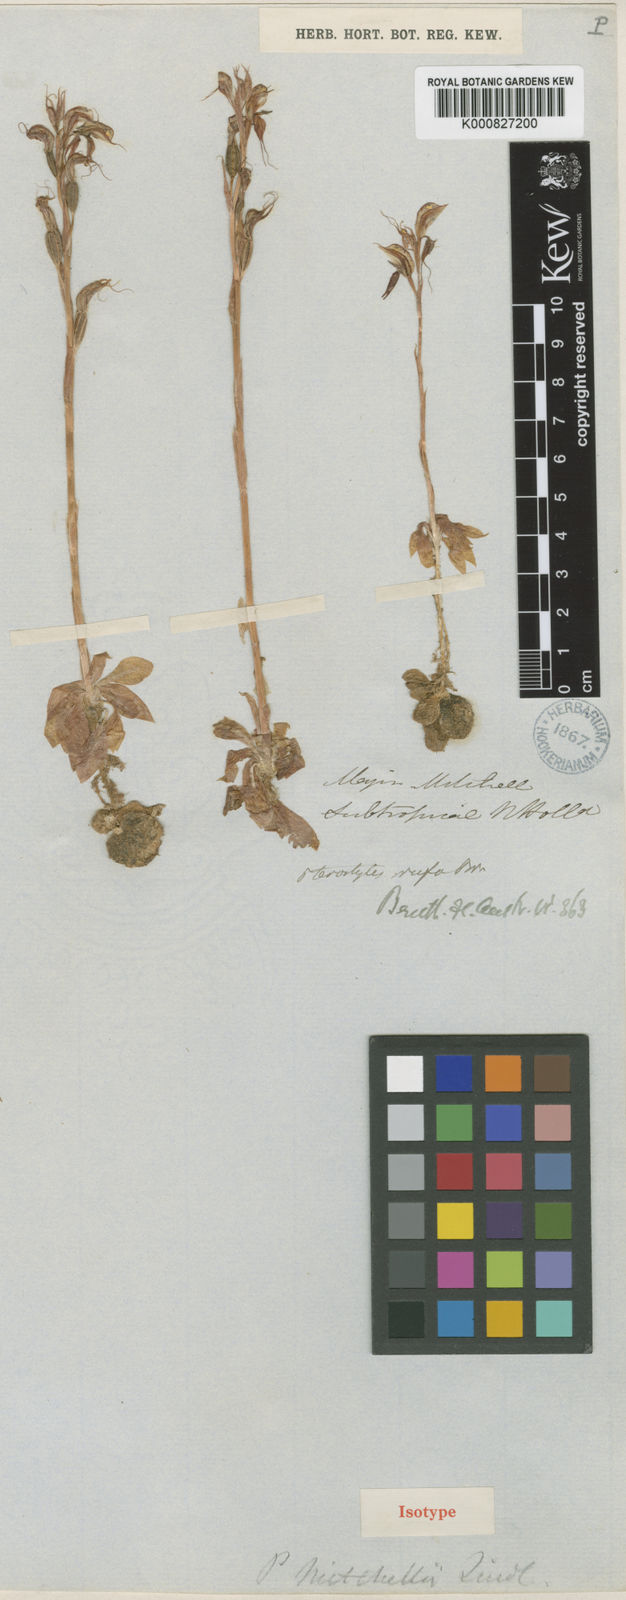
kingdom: Plantae
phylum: Tracheophyta
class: Liliopsida
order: Asparagales
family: Orchidaceae
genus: Pterostylis
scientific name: Pterostylis mitchellii
